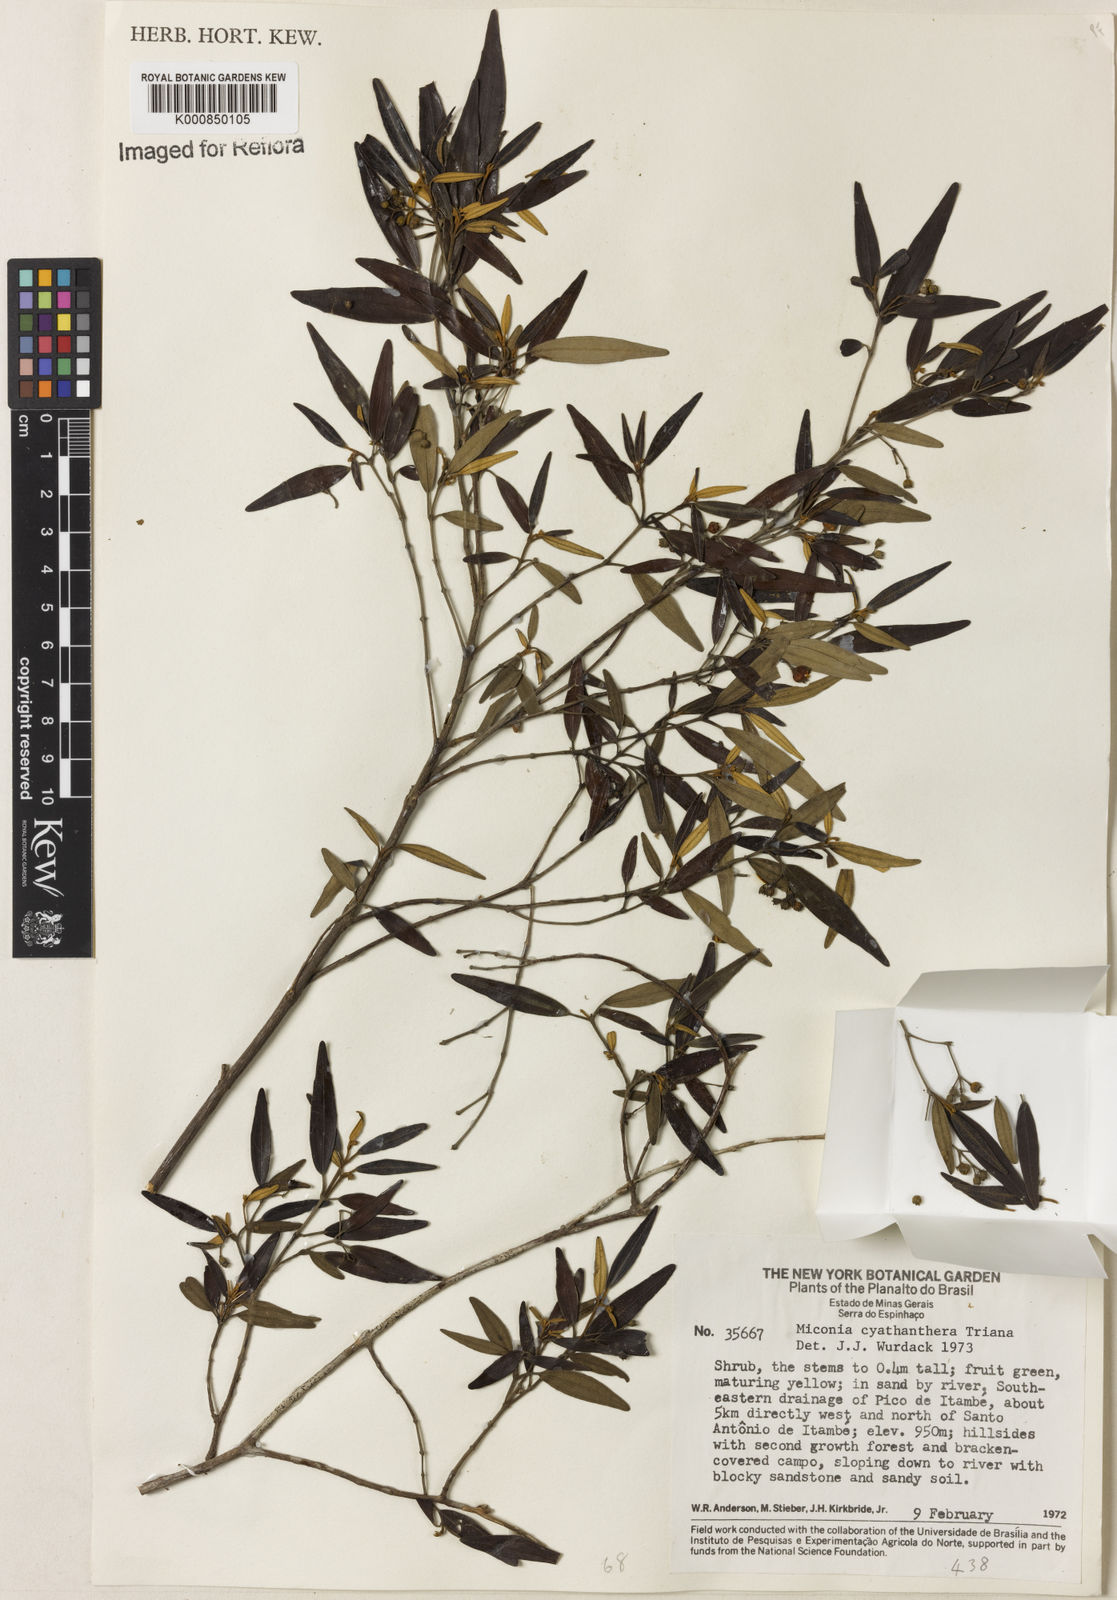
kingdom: Plantae
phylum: Tracheophyta
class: Magnoliopsida
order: Myrtales
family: Melastomataceae
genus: Miconia
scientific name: Miconia cyathanthera
